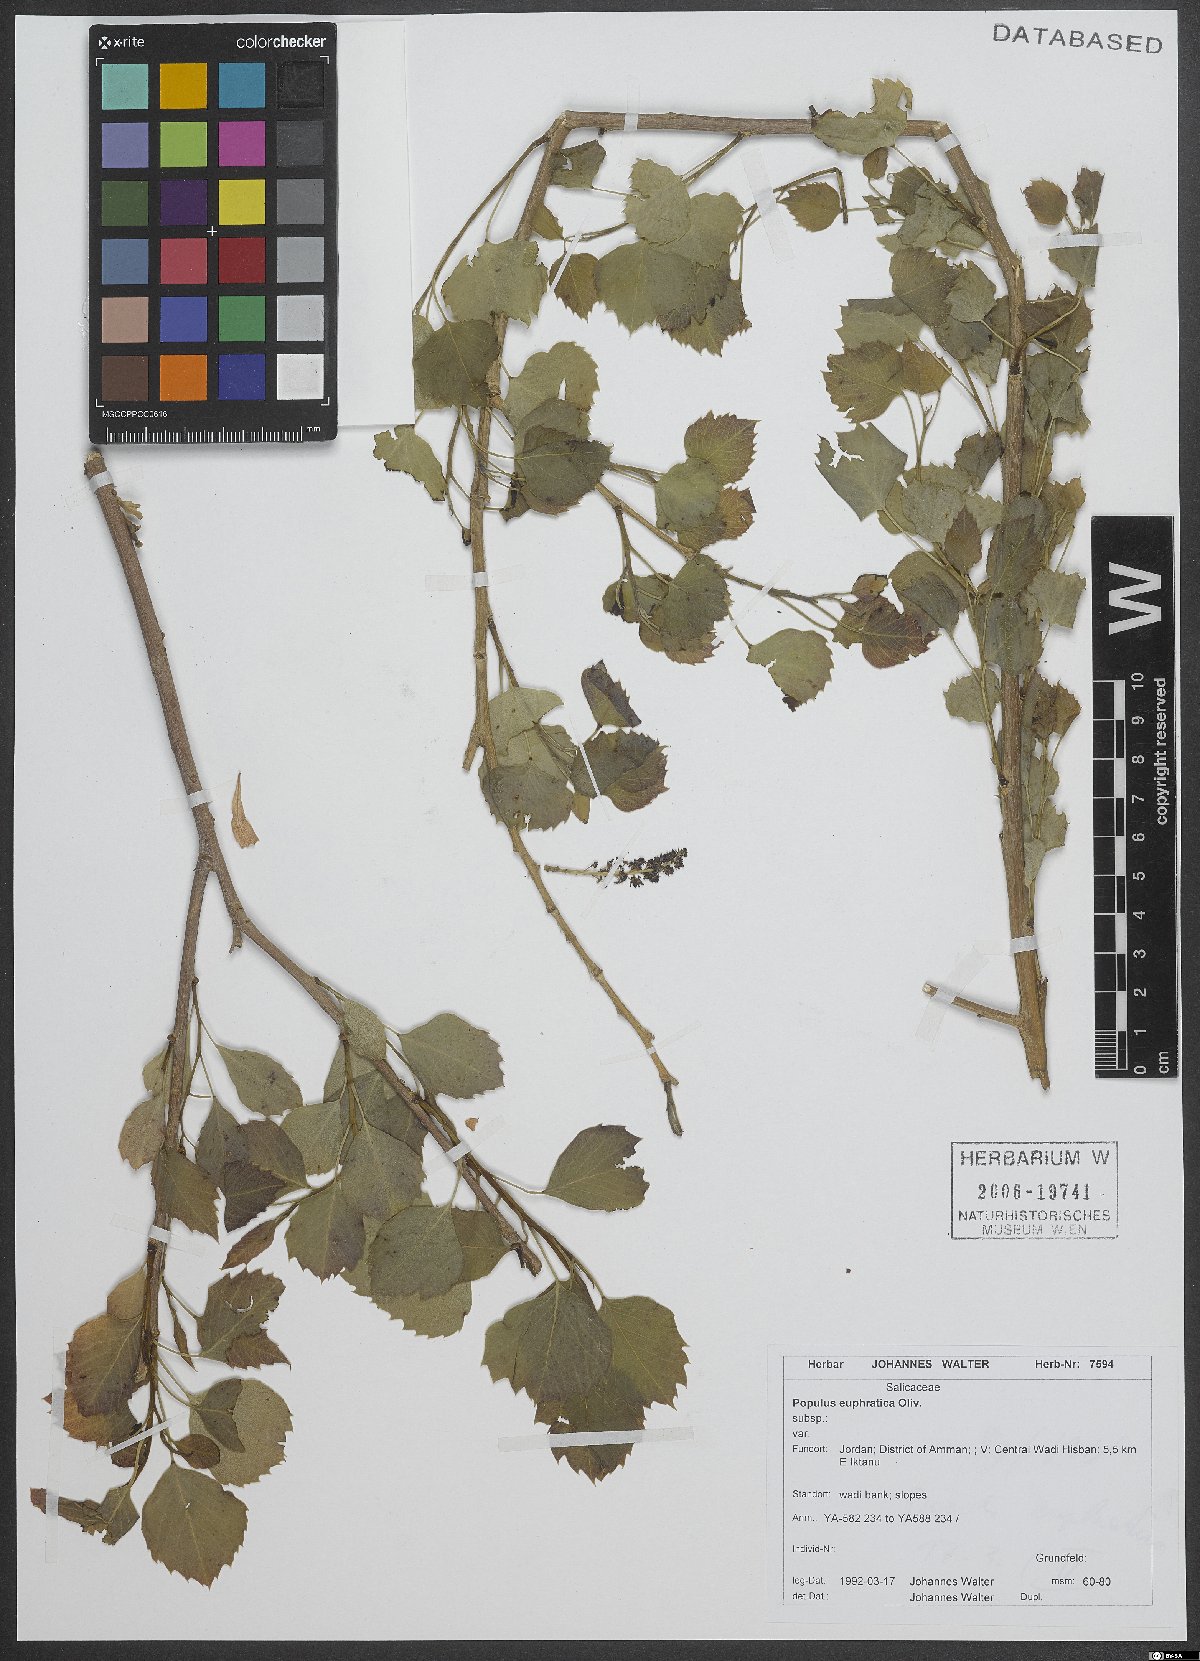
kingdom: Plantae
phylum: Tracheophyta
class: Magnoliopsida
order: Malpighiales
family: Salicaceae
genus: Populus
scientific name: Populus euphratica
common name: Euphrates poplar
